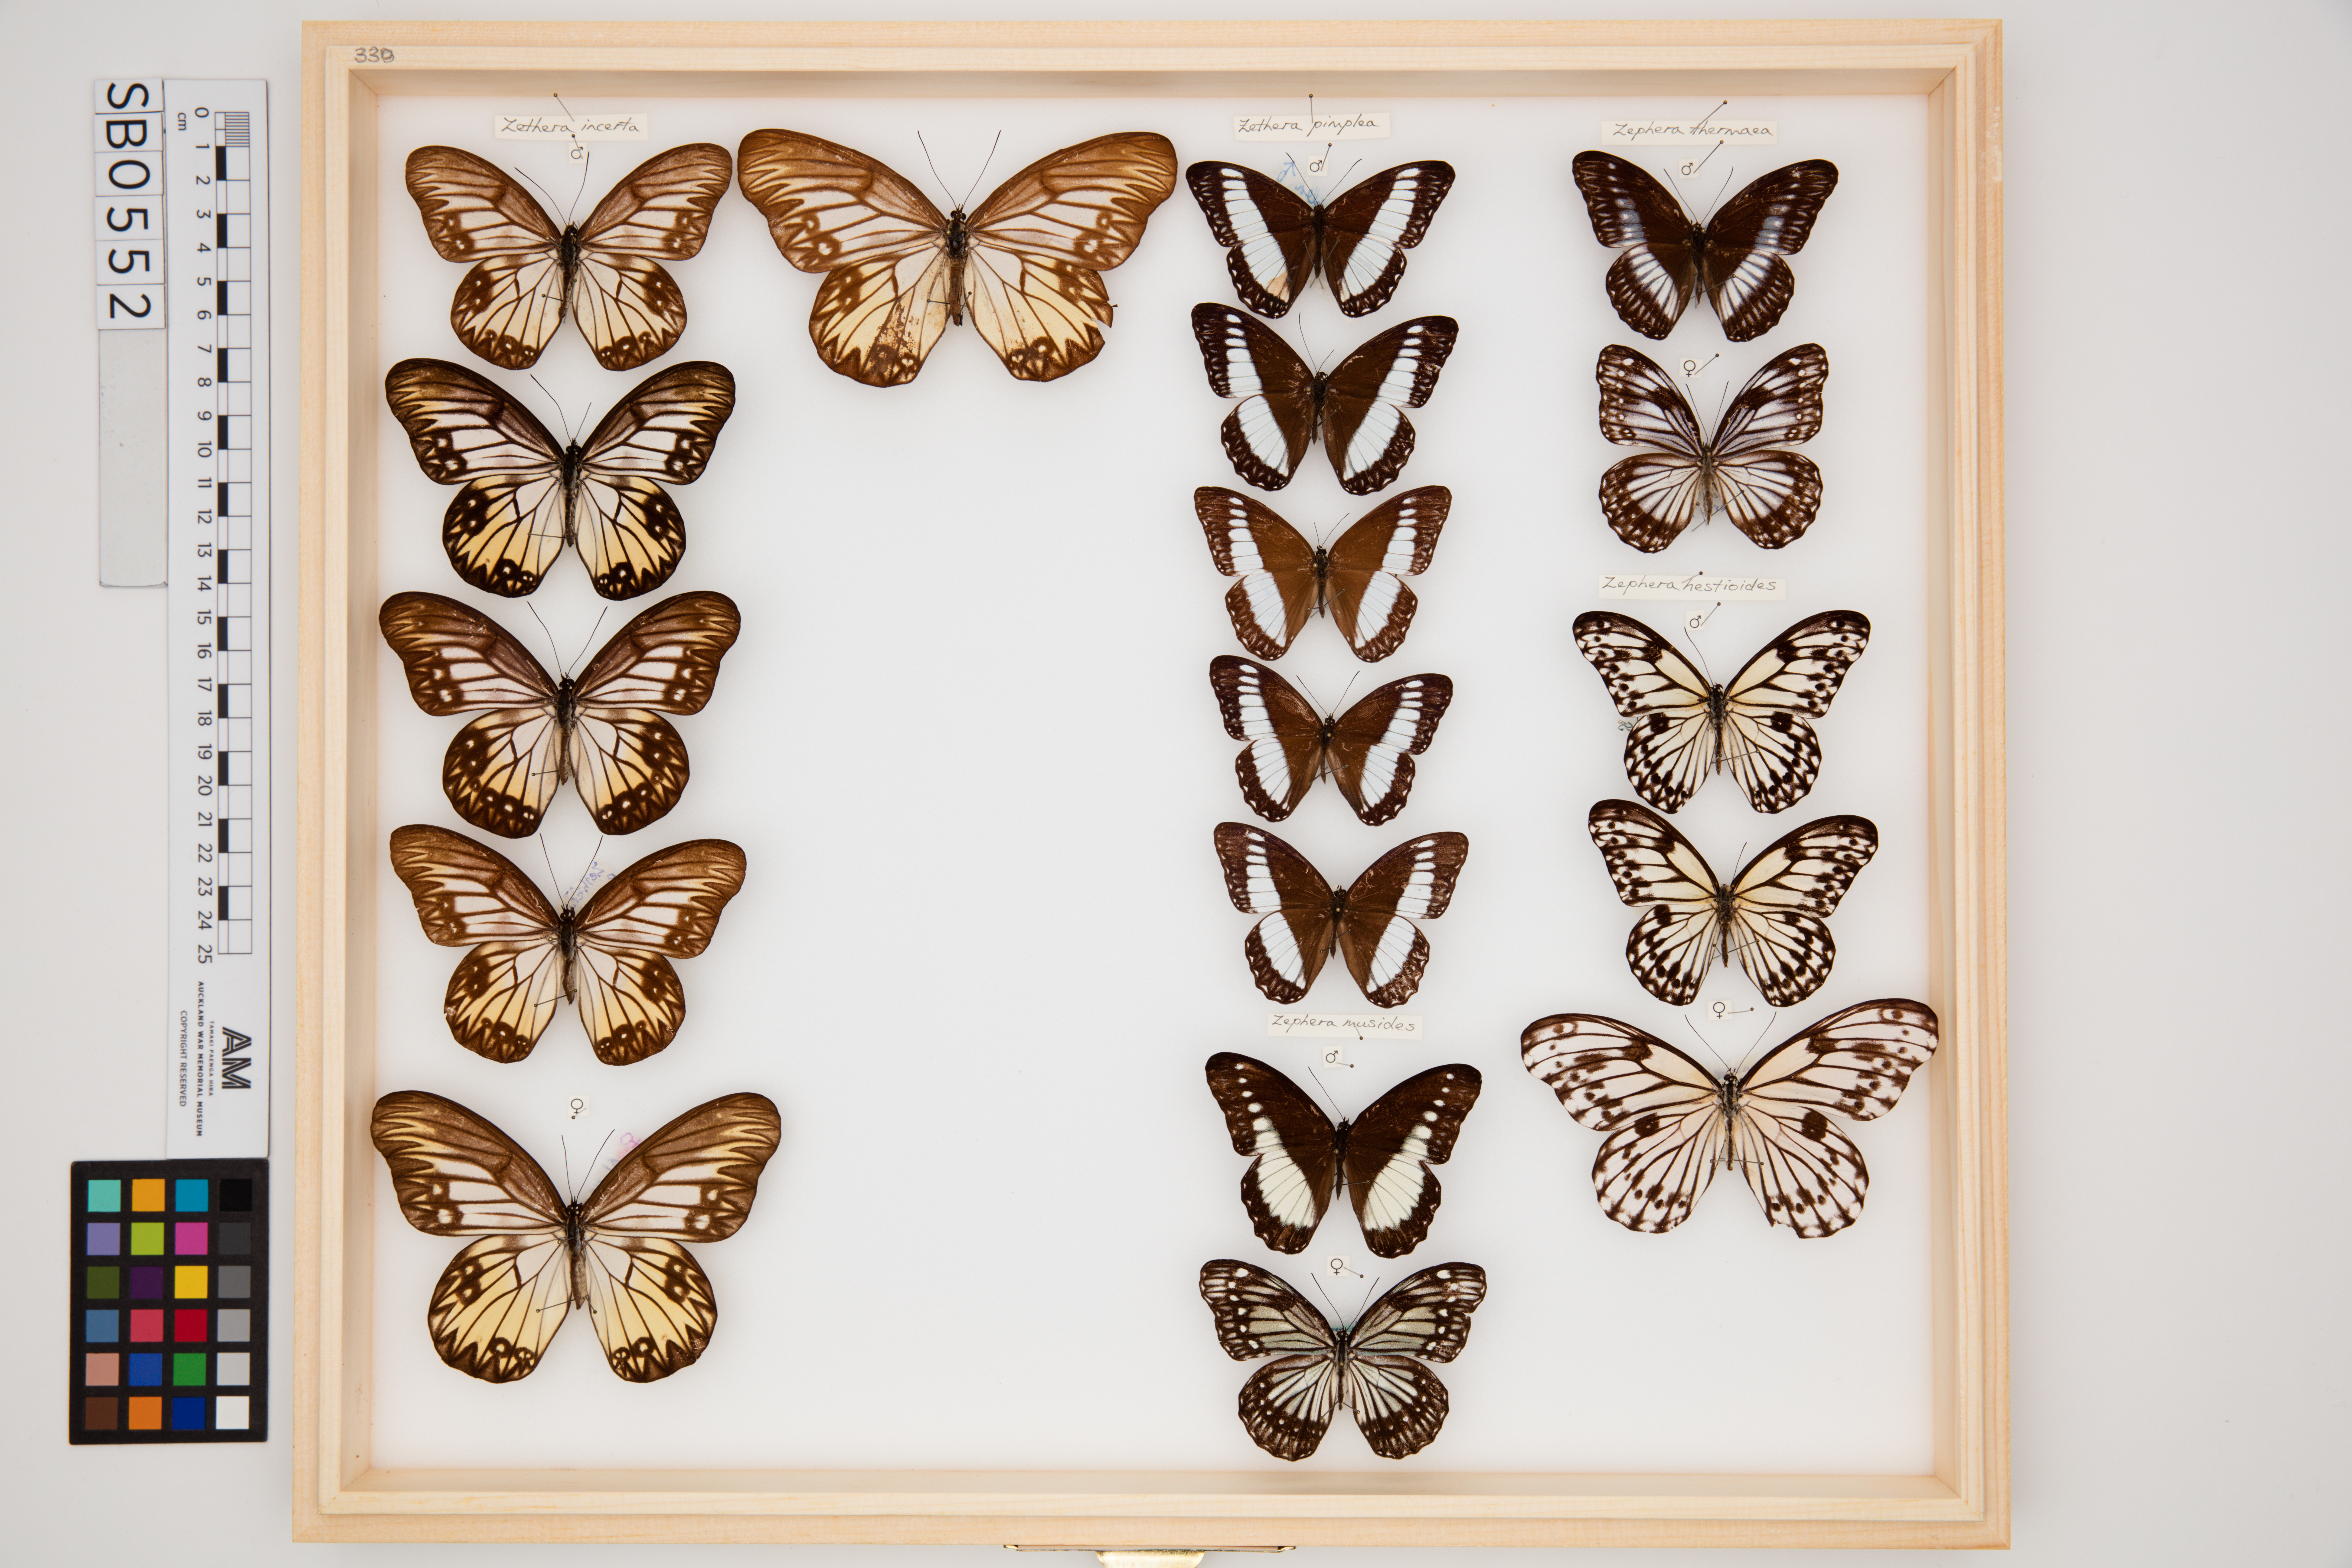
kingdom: Animalia
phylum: Arthropoda
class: Insecta
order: Lepidoptera
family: Nymphalidae
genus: Zethera
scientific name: Zethera hestioides
